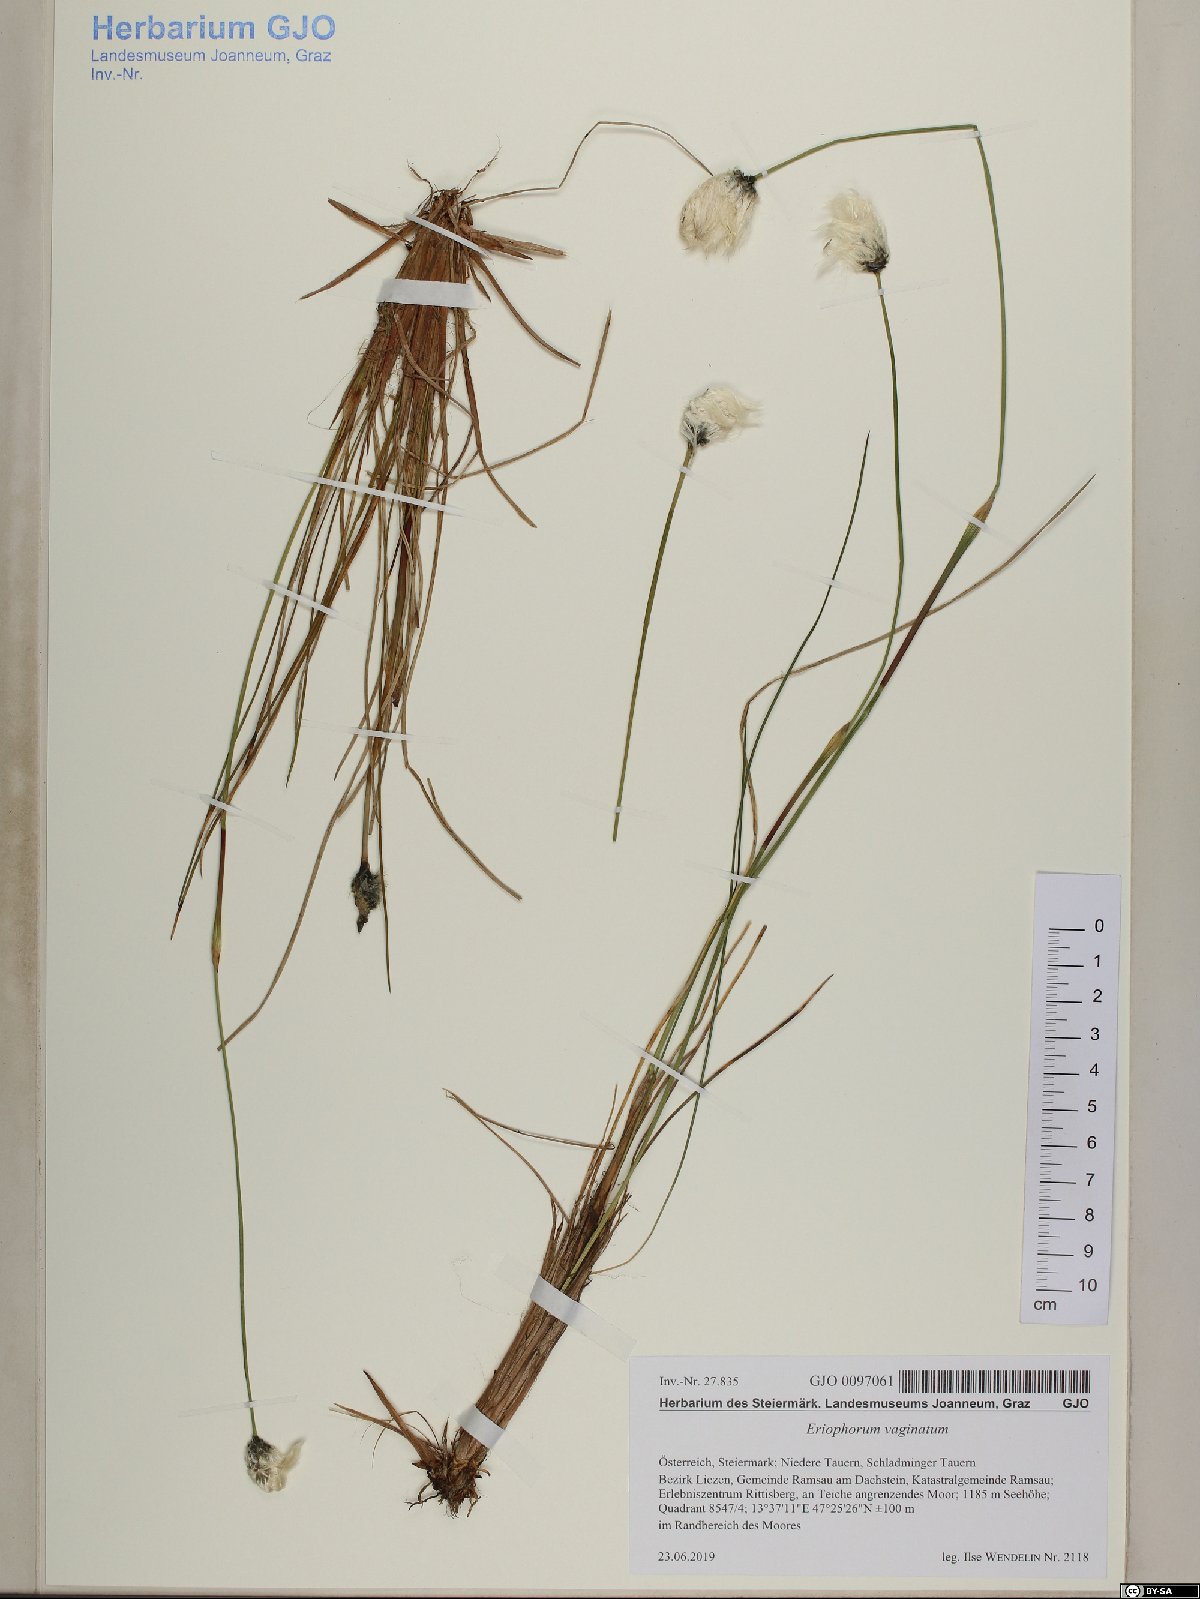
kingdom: Plantae
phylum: Tracheophyta
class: Liliopsida
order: Poales
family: Cyperaceae
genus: Eriophorum
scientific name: Eriophorum vaginatum
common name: Hare's-tail cottongrass
